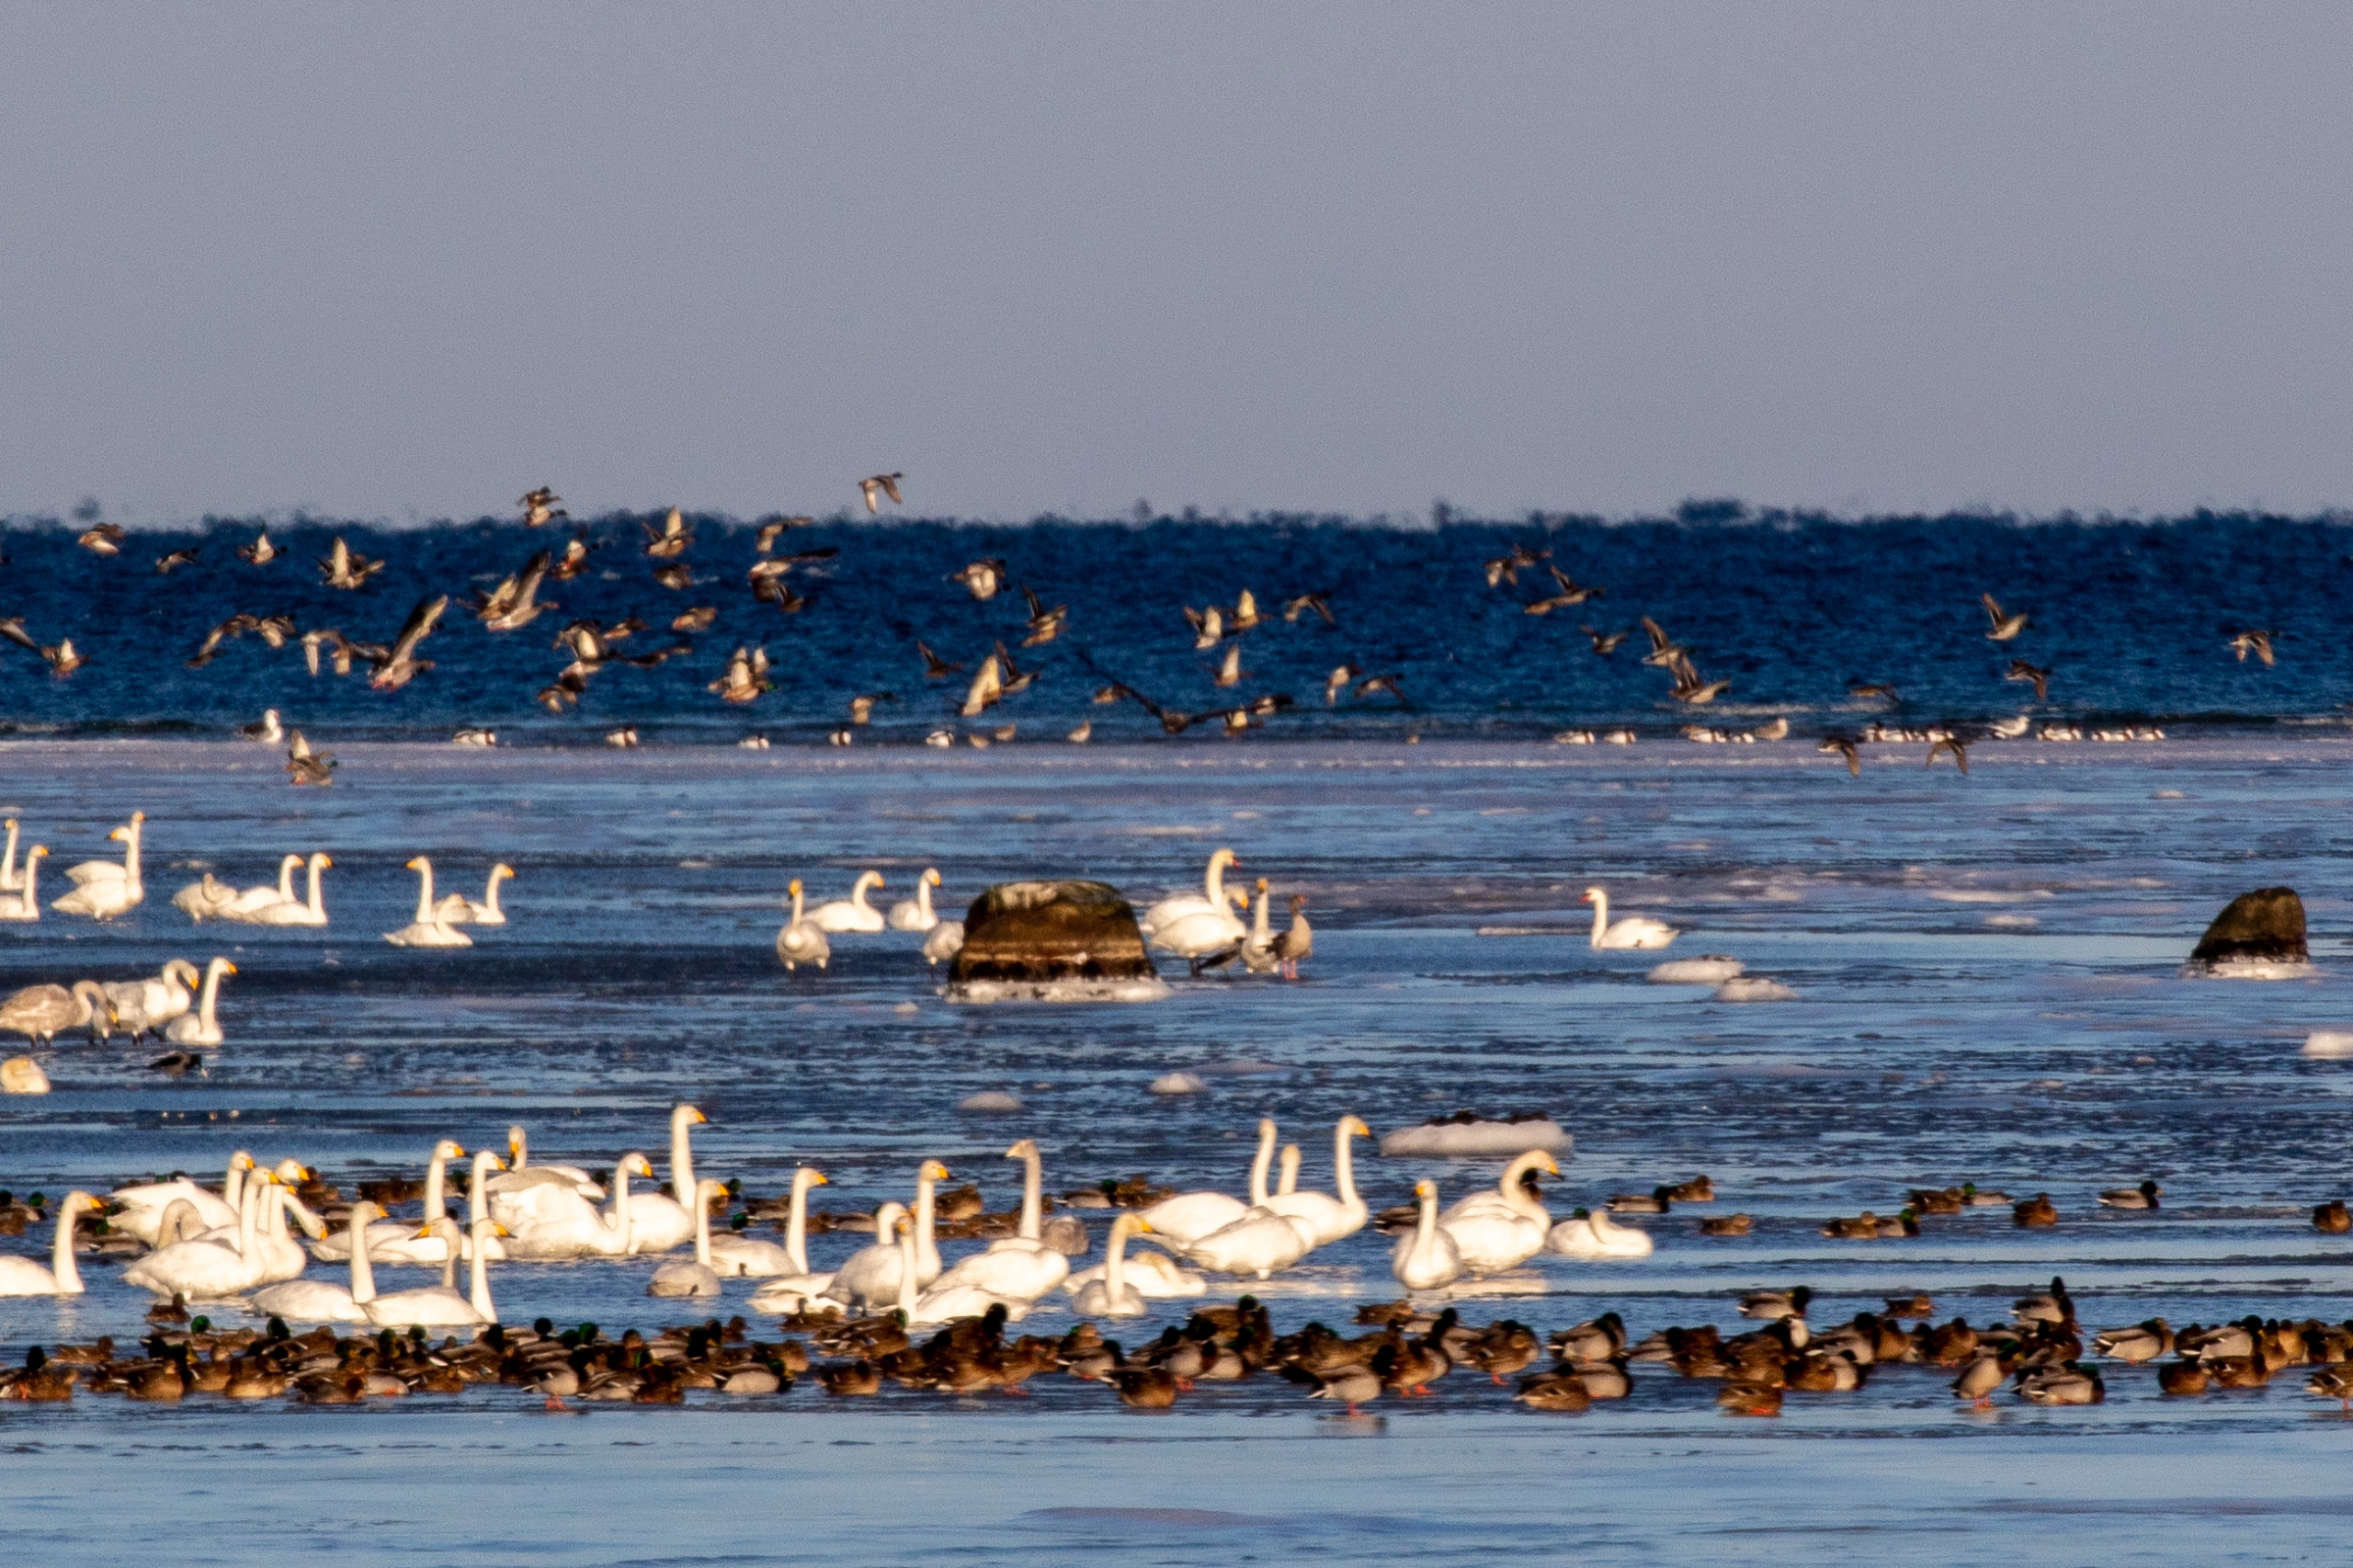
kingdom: Animalia
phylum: Chordata
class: Aves
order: Anseriformes
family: Anatidae
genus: Anas
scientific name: Anas platyrhynchos
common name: Gråand
